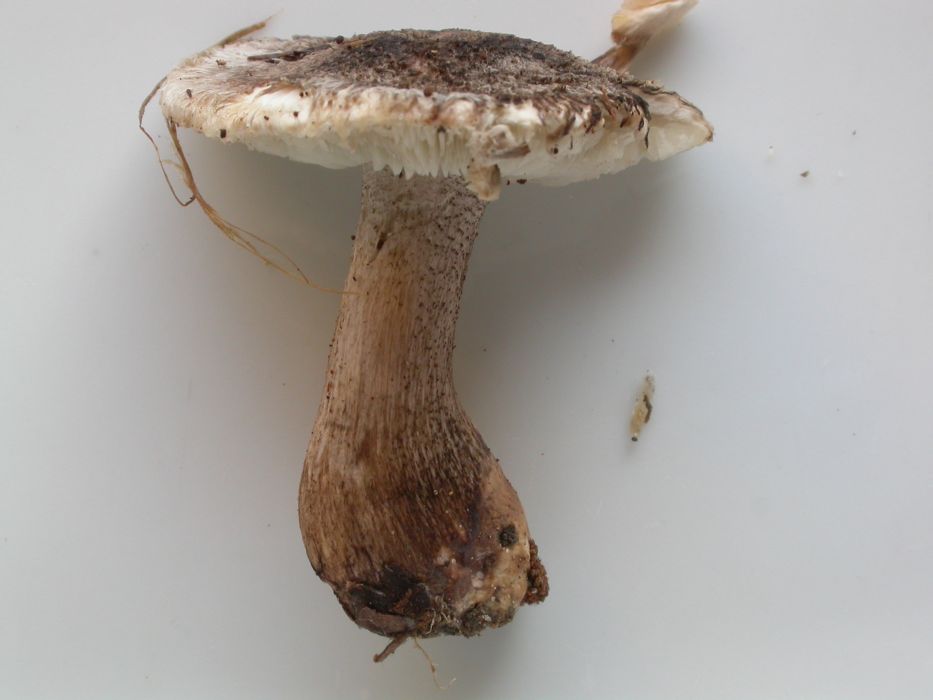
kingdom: Fungi
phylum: Basidiomycota
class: Agaricomycetes
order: Agaricales
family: Tricholomataceae
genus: Tricholoma
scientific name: Tricholoma atrosquamosum
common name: sortskællet ridderhat
